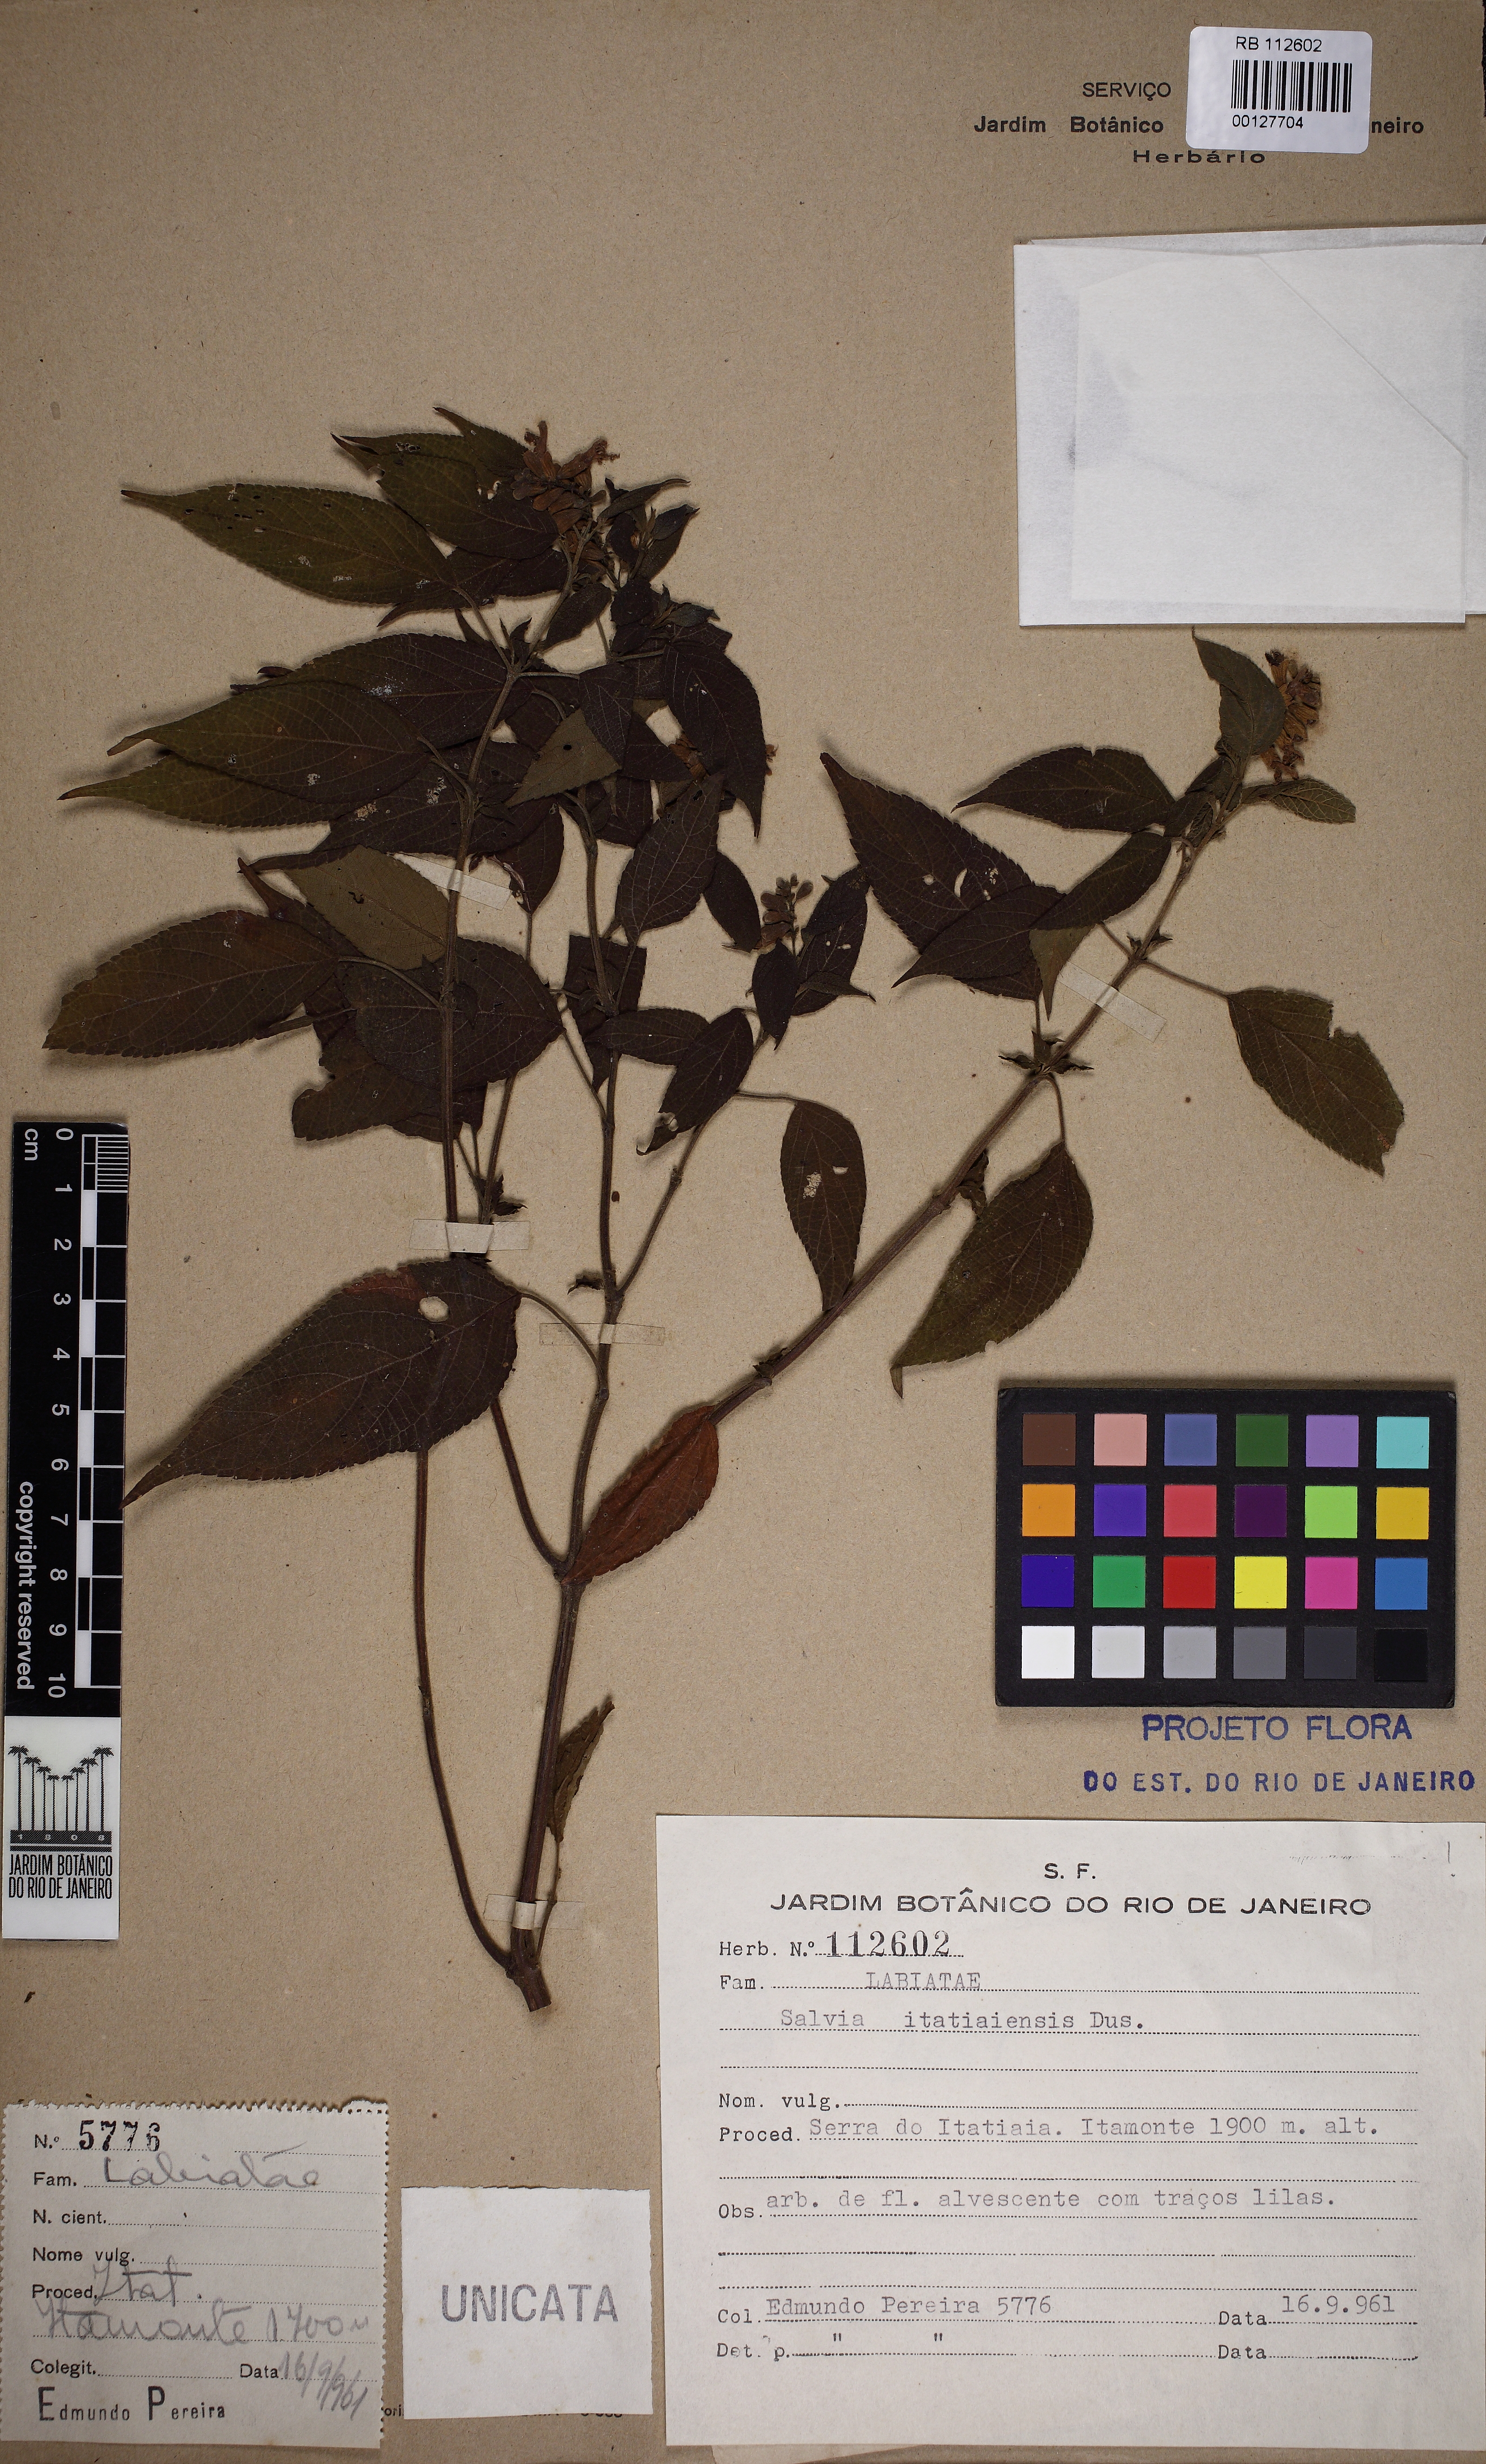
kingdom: Plantae
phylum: Tracheophyta
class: Magnoliopsida
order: Lamiales
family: Lamiaceae
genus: Salvia
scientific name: Salvia itatiaiensis
